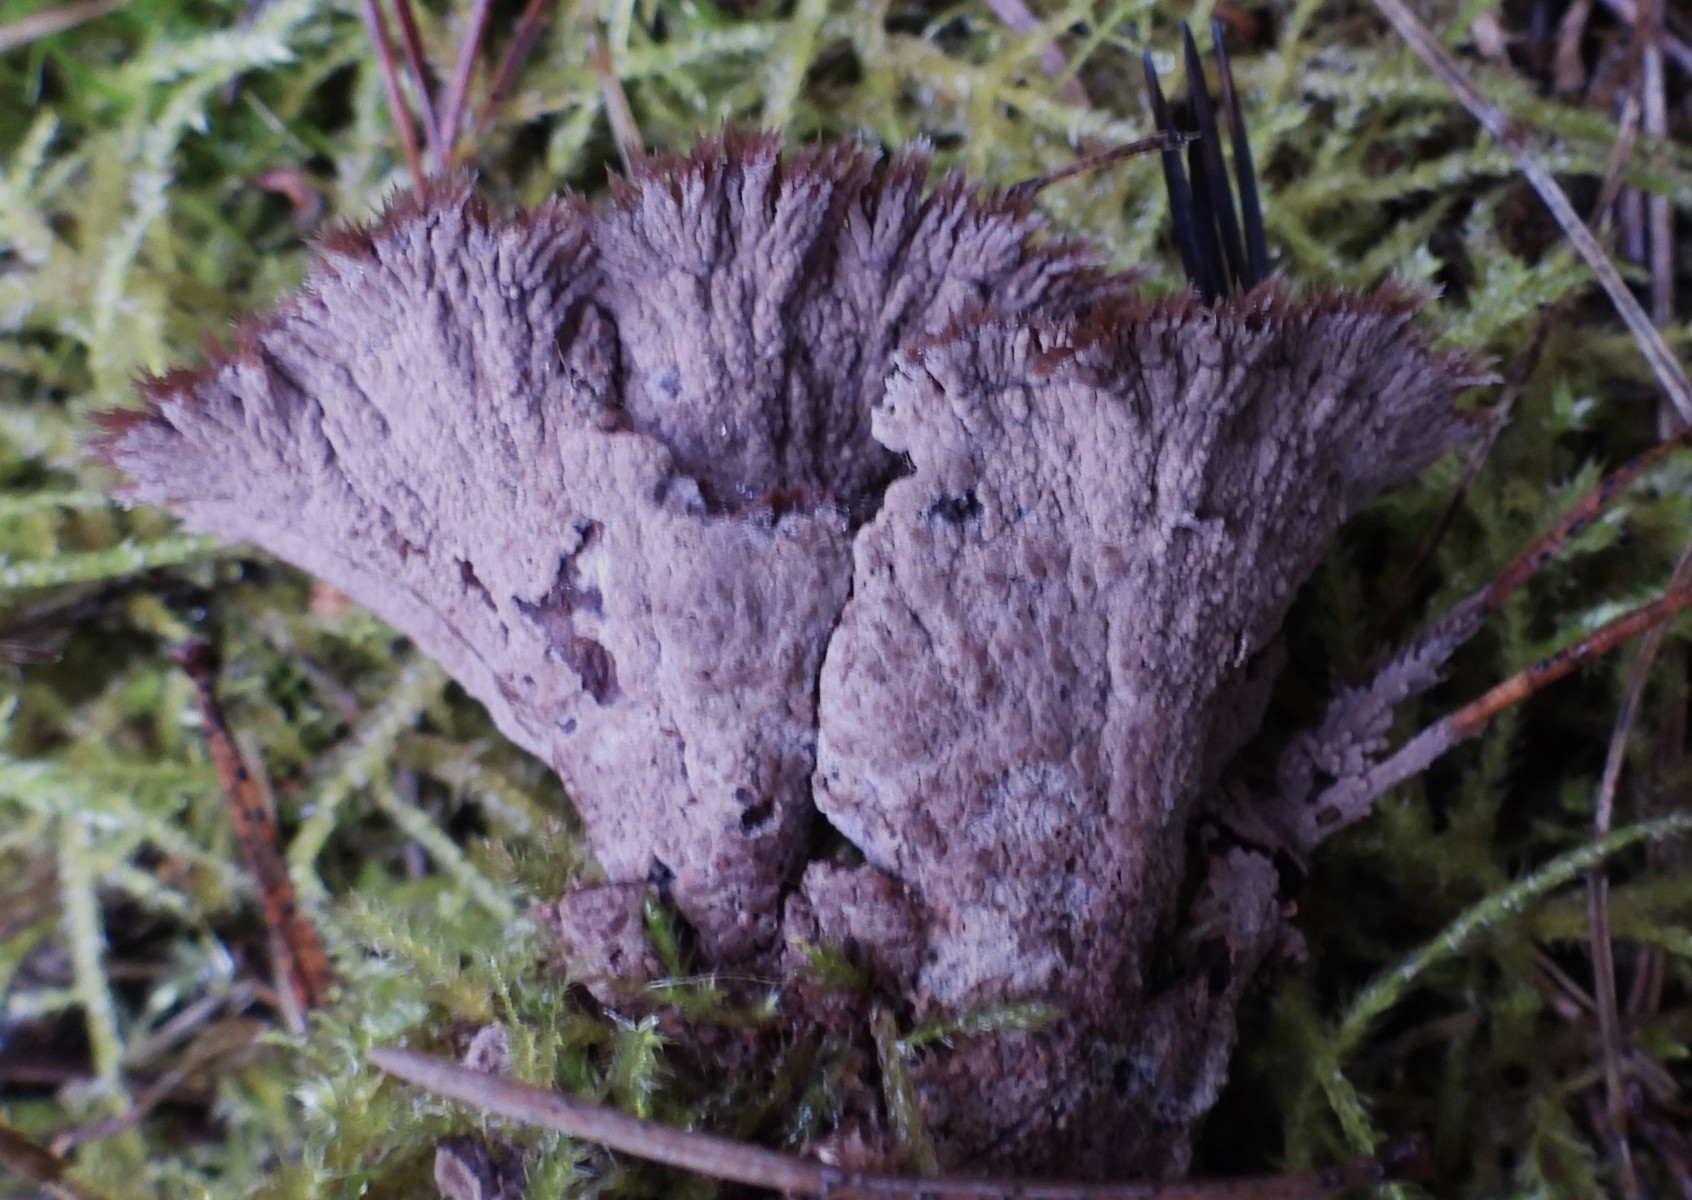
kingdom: Fungi
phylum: Basidiomycota
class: Agaricomycetes
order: Thelephorales
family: Thelephoraceae
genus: Thelephora
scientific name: Thelephora terrestris
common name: fliget frynsesvamp
